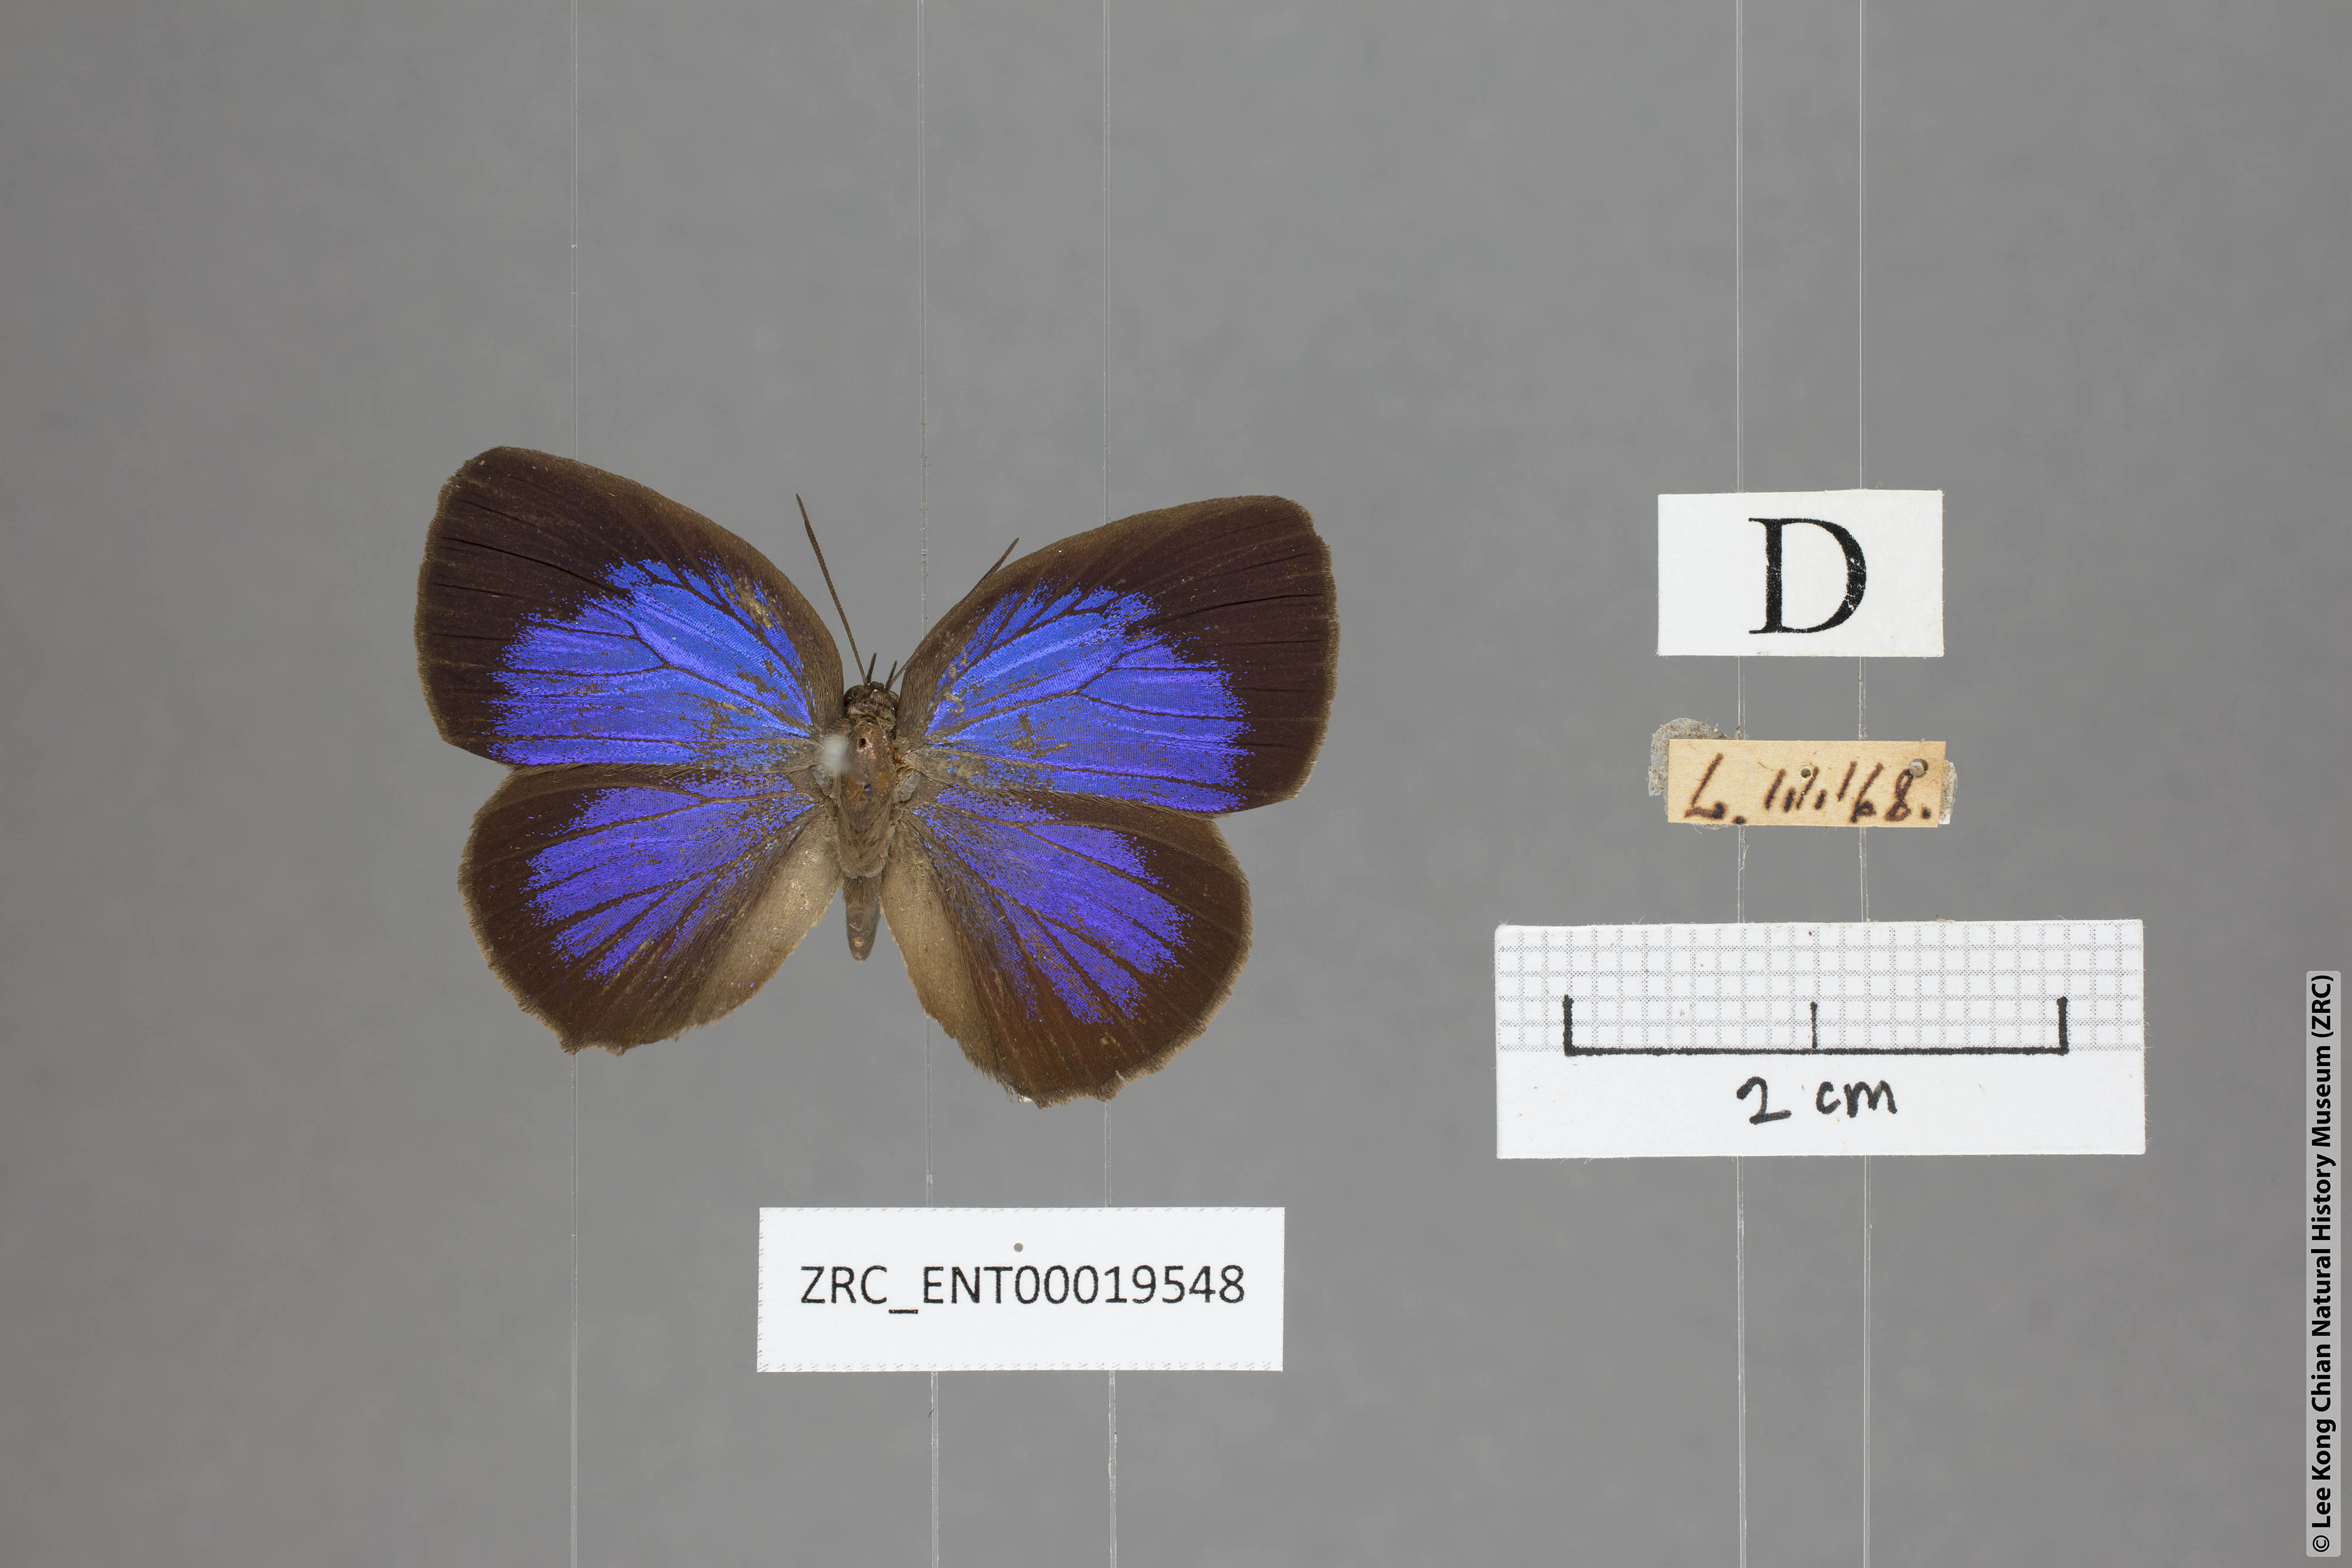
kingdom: Animalia
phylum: Arthropoda
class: Insecta
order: Lepidoptera
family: Lycaenidae
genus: Arhopala
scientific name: Arhopala hypomuta
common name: Violet oakblue
